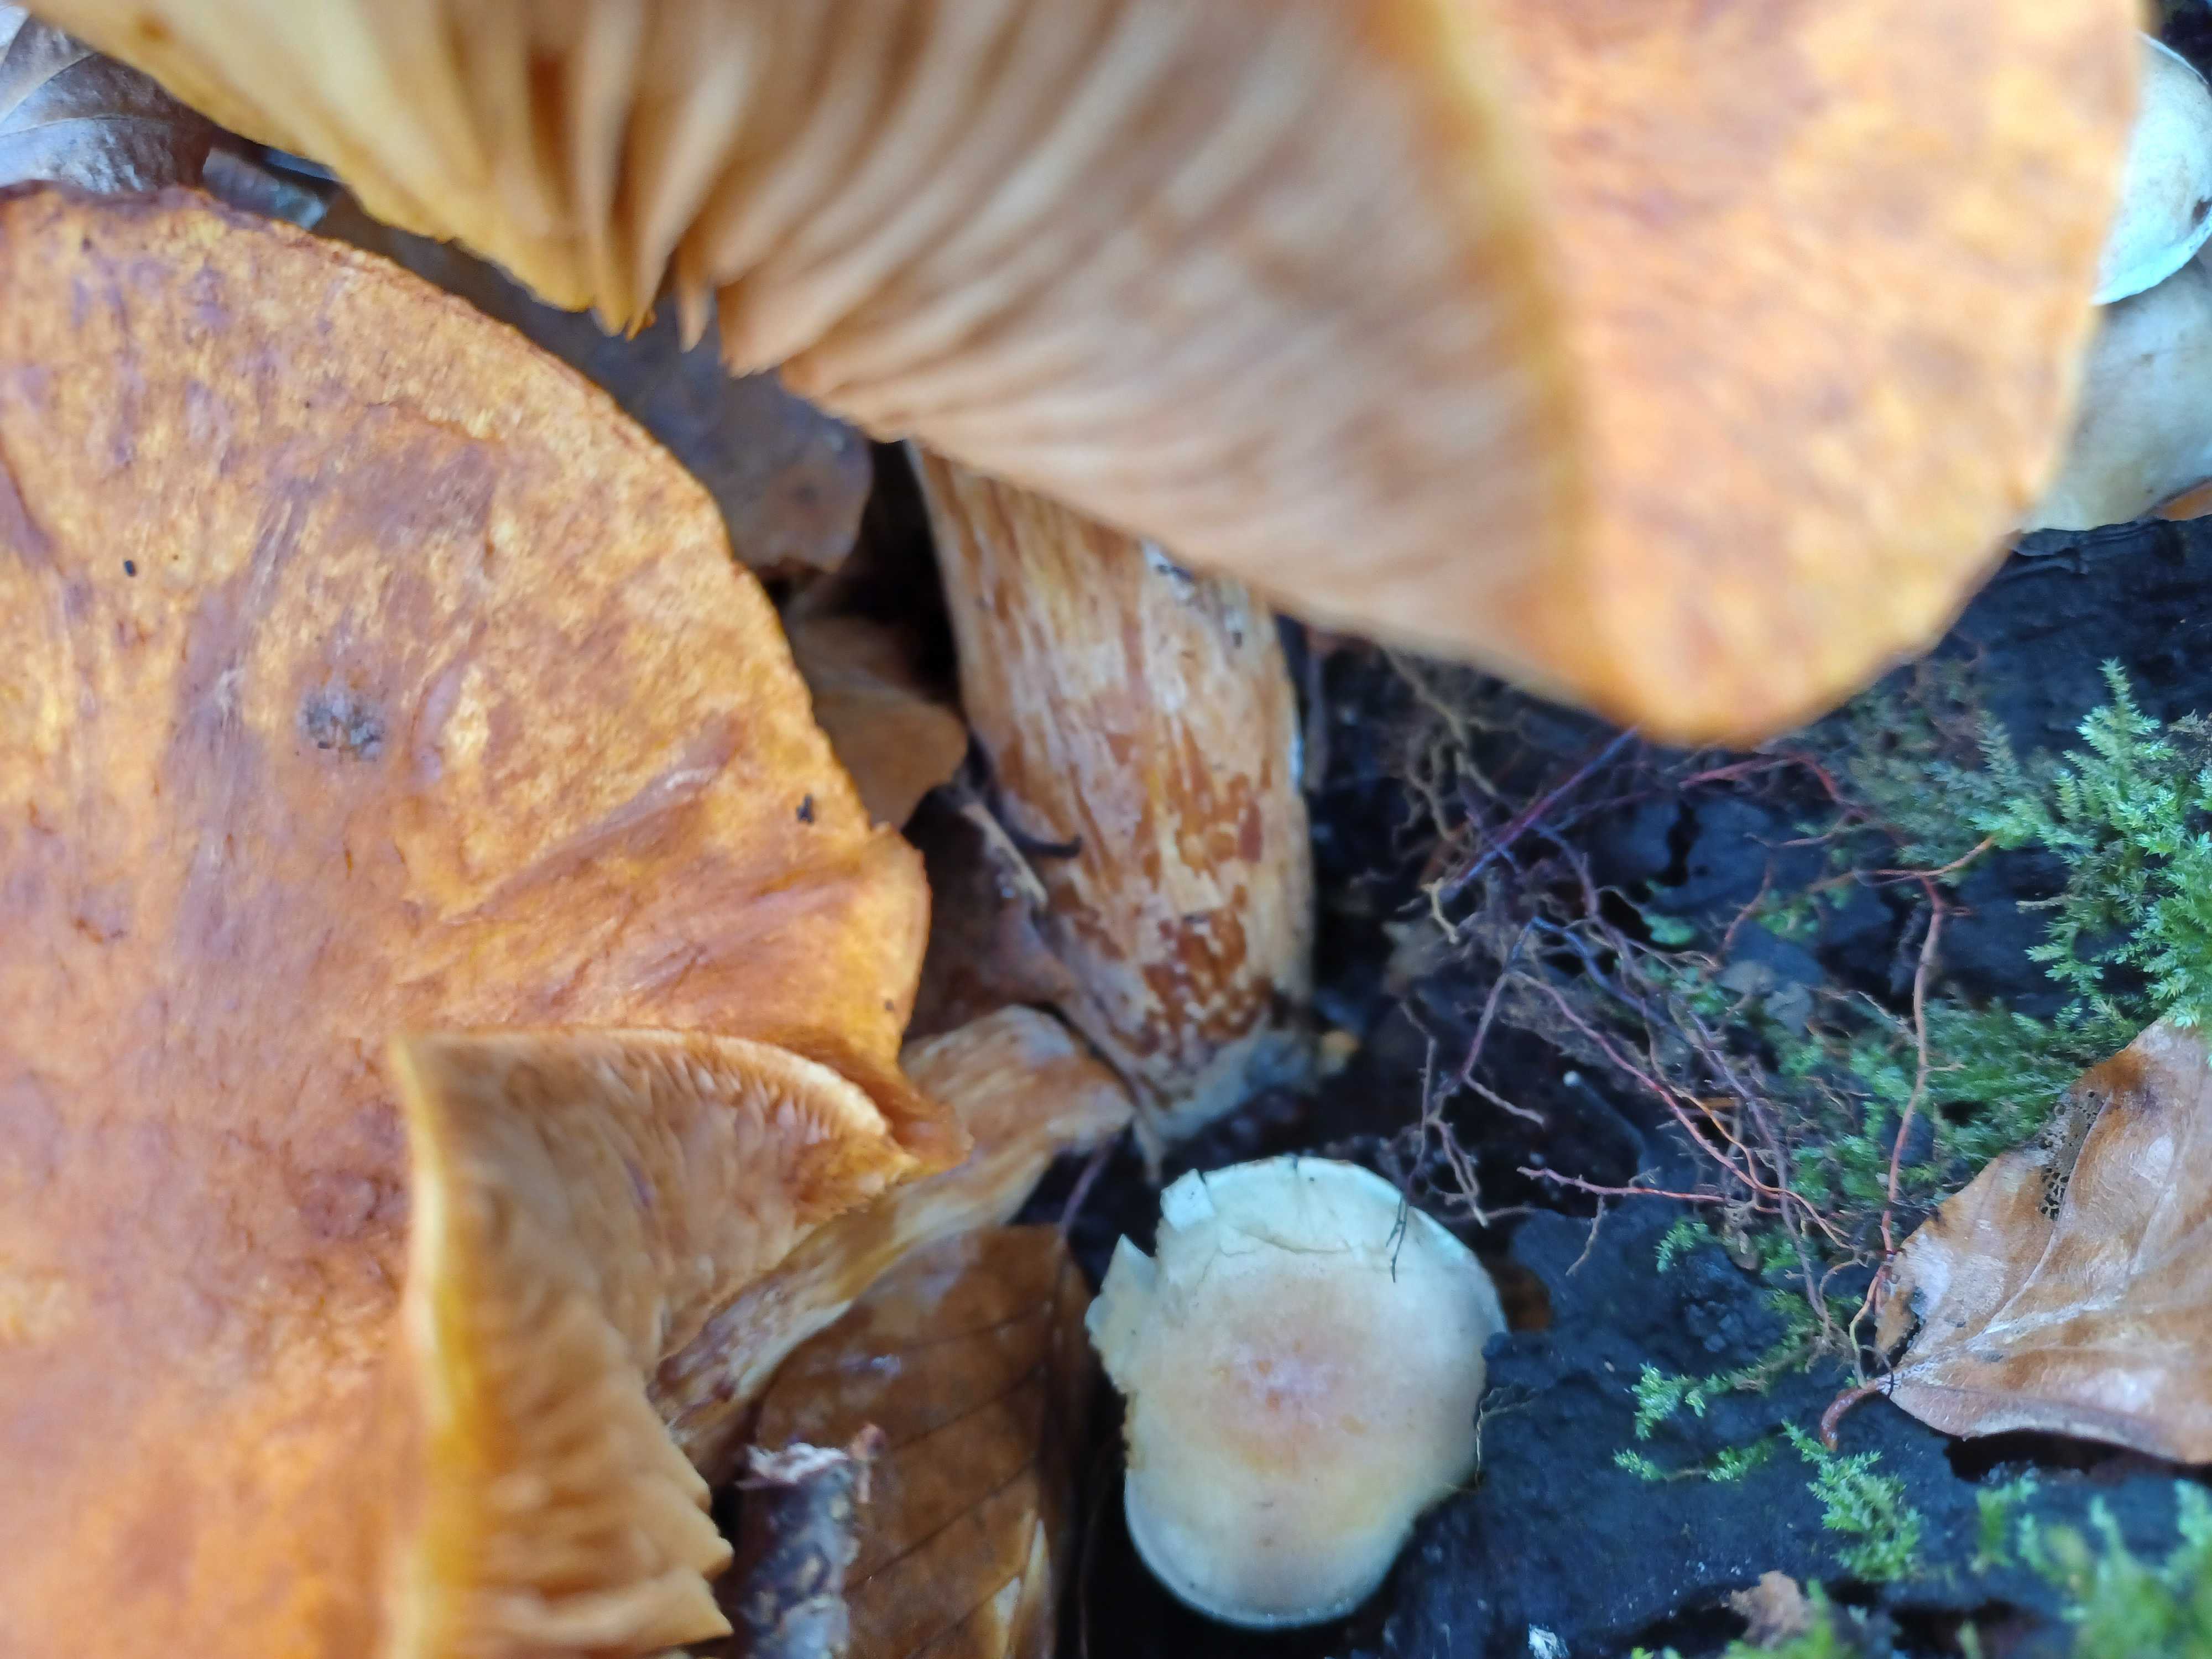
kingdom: Fungi
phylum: Basidiomycota
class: Agaricomycetes
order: Agaricales
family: Hymenogastraceae
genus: Gymnopilus
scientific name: Gymnopilus spectabilis
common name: fibret flammehat
